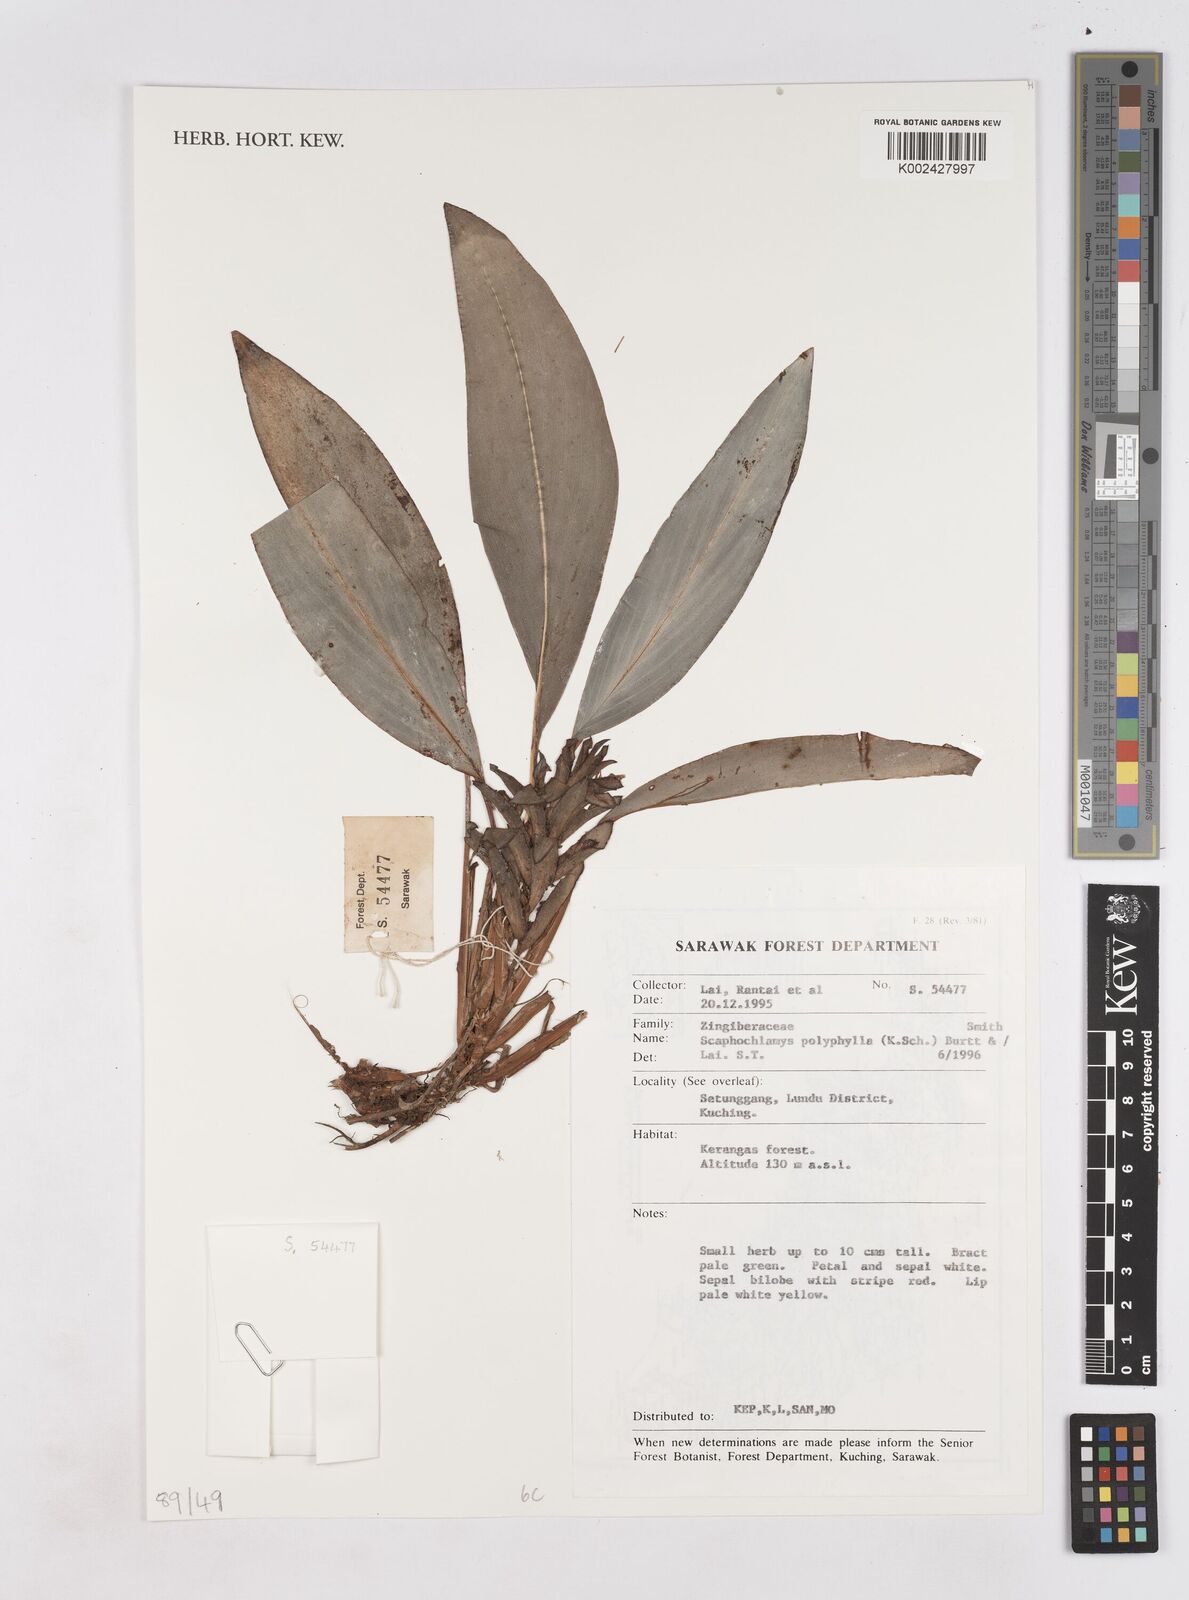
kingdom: Plantae
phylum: Tracheophyta
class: Liliopsida
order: Zingiberales
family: Zingiberaceae
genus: Scaphochlamys
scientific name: Scaphochlamys polyphylla
